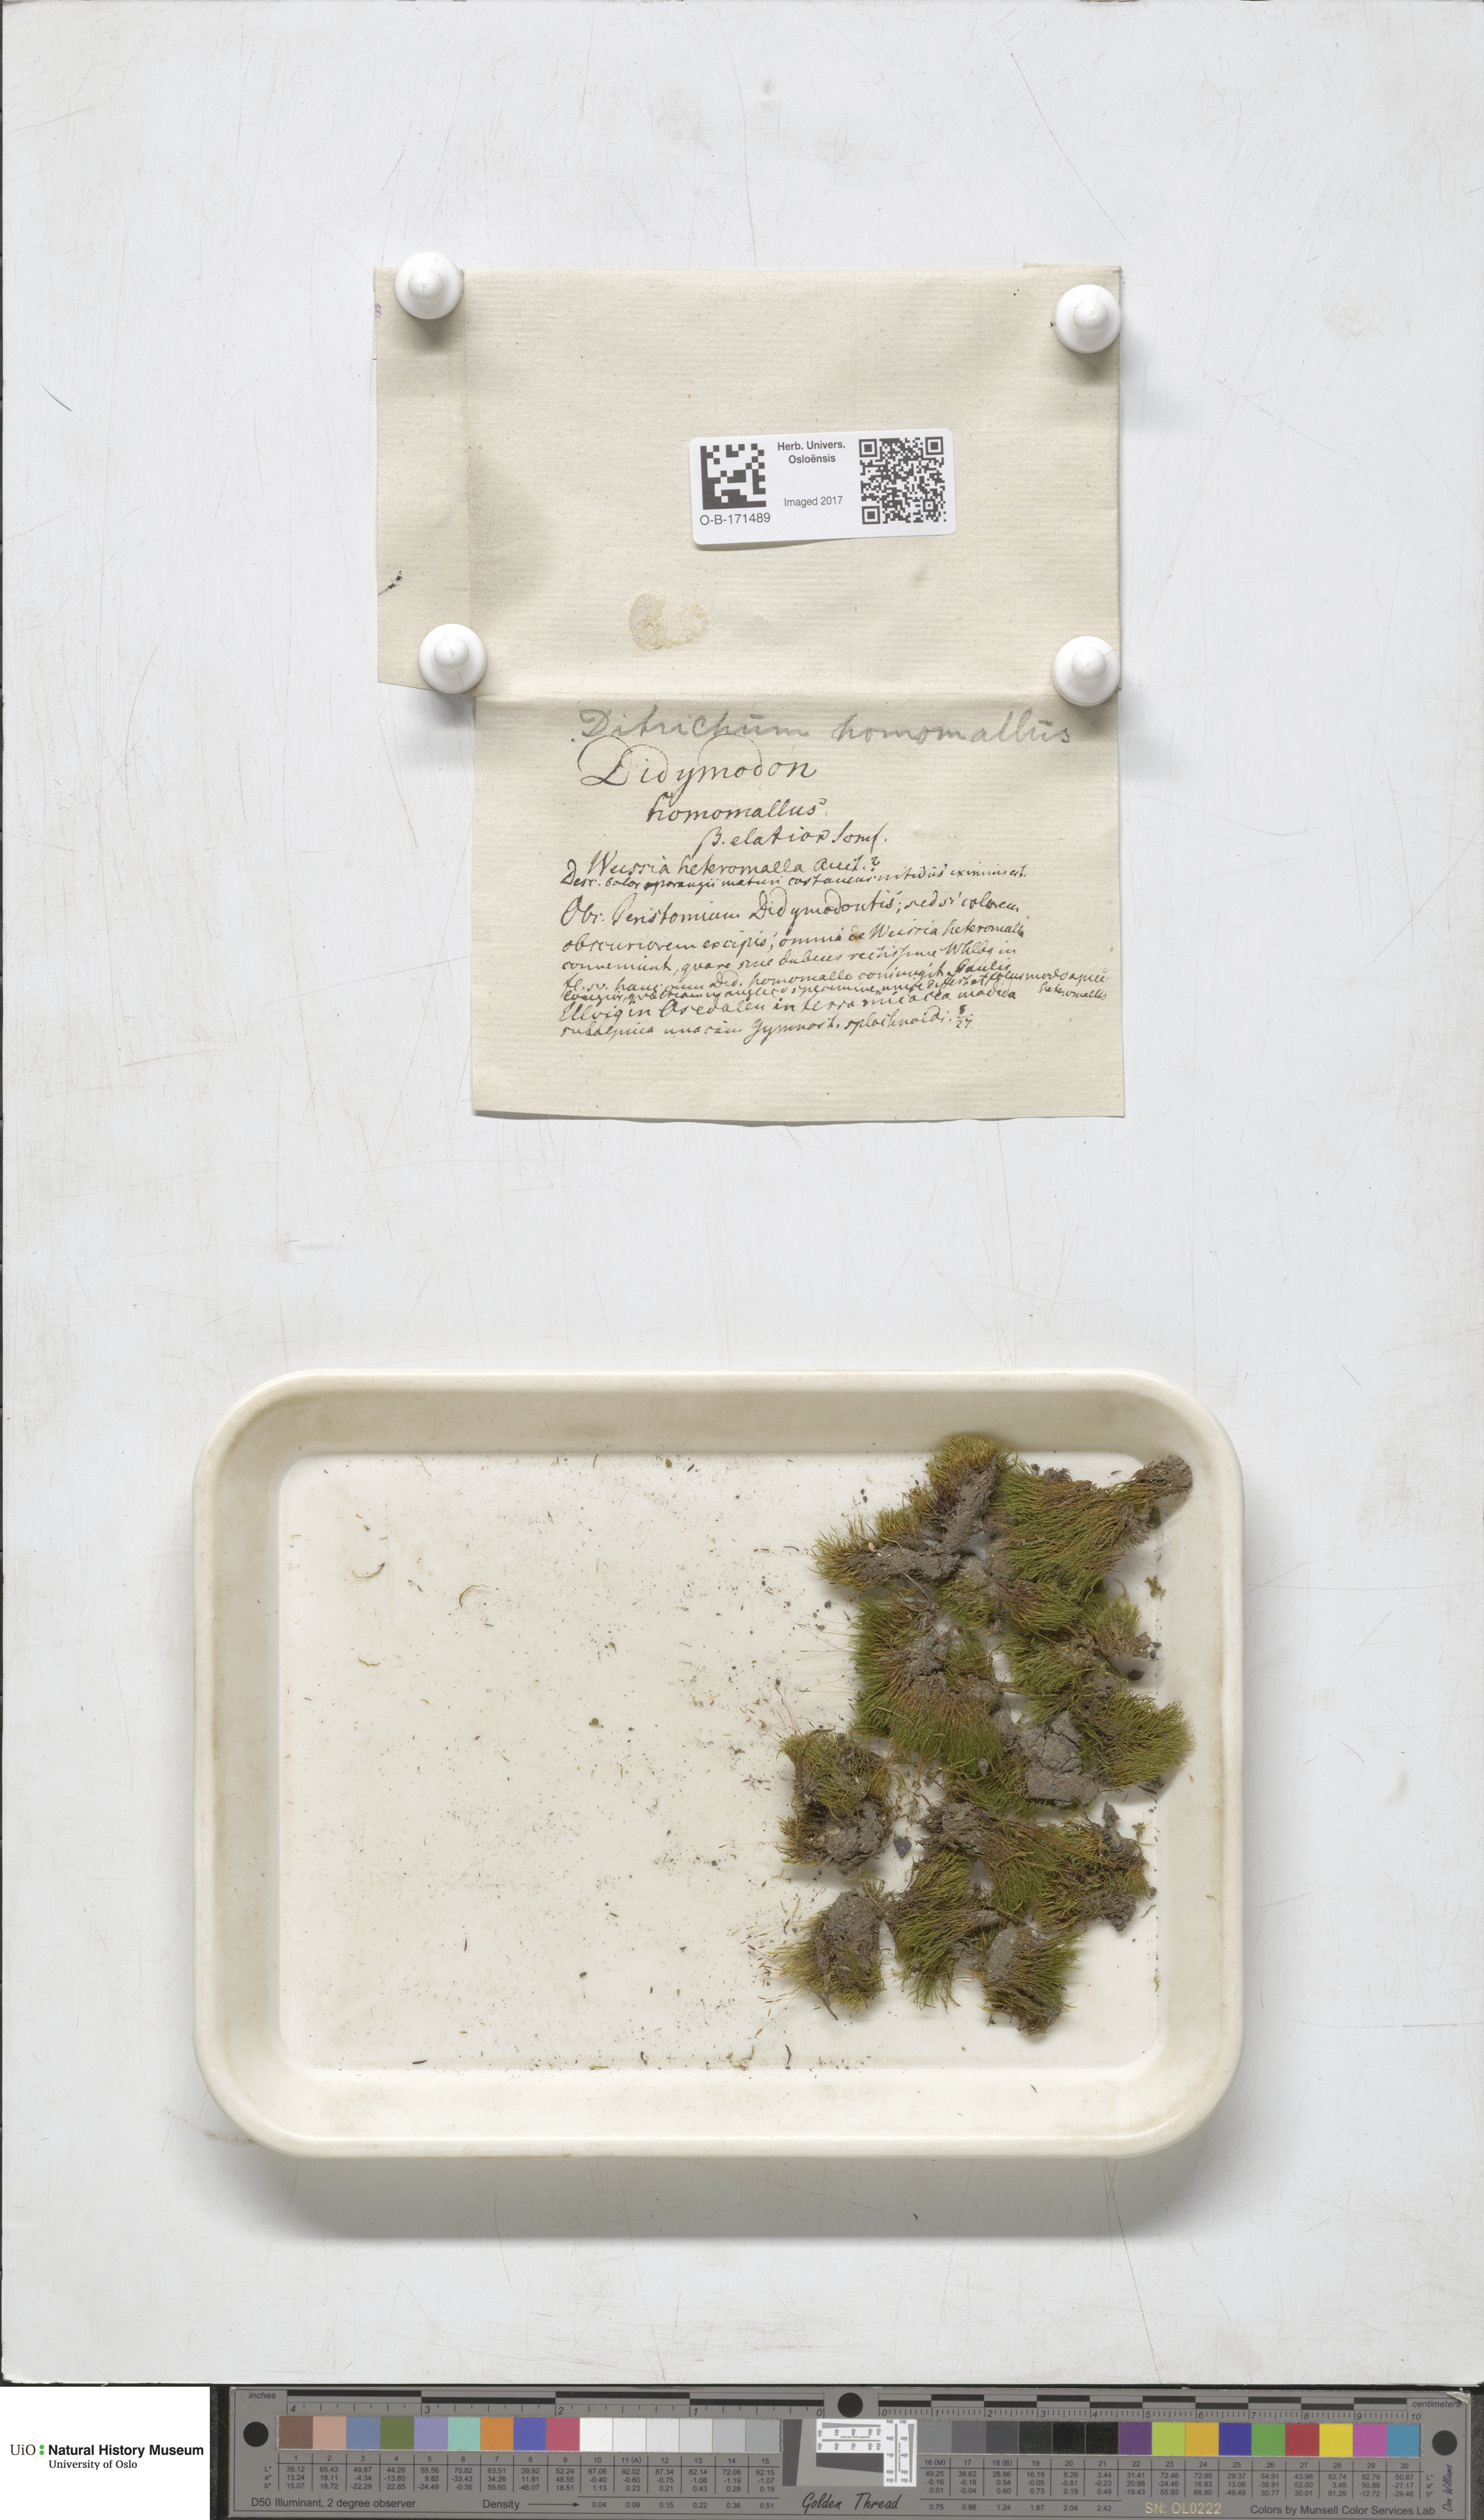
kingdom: Plantae
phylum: Bryophyta
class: Bryopsida
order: Dicranales
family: Ditrichaceae
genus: Ditrichum
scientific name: Ditrichum heteromallum
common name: Curve-leaved ditrichum
